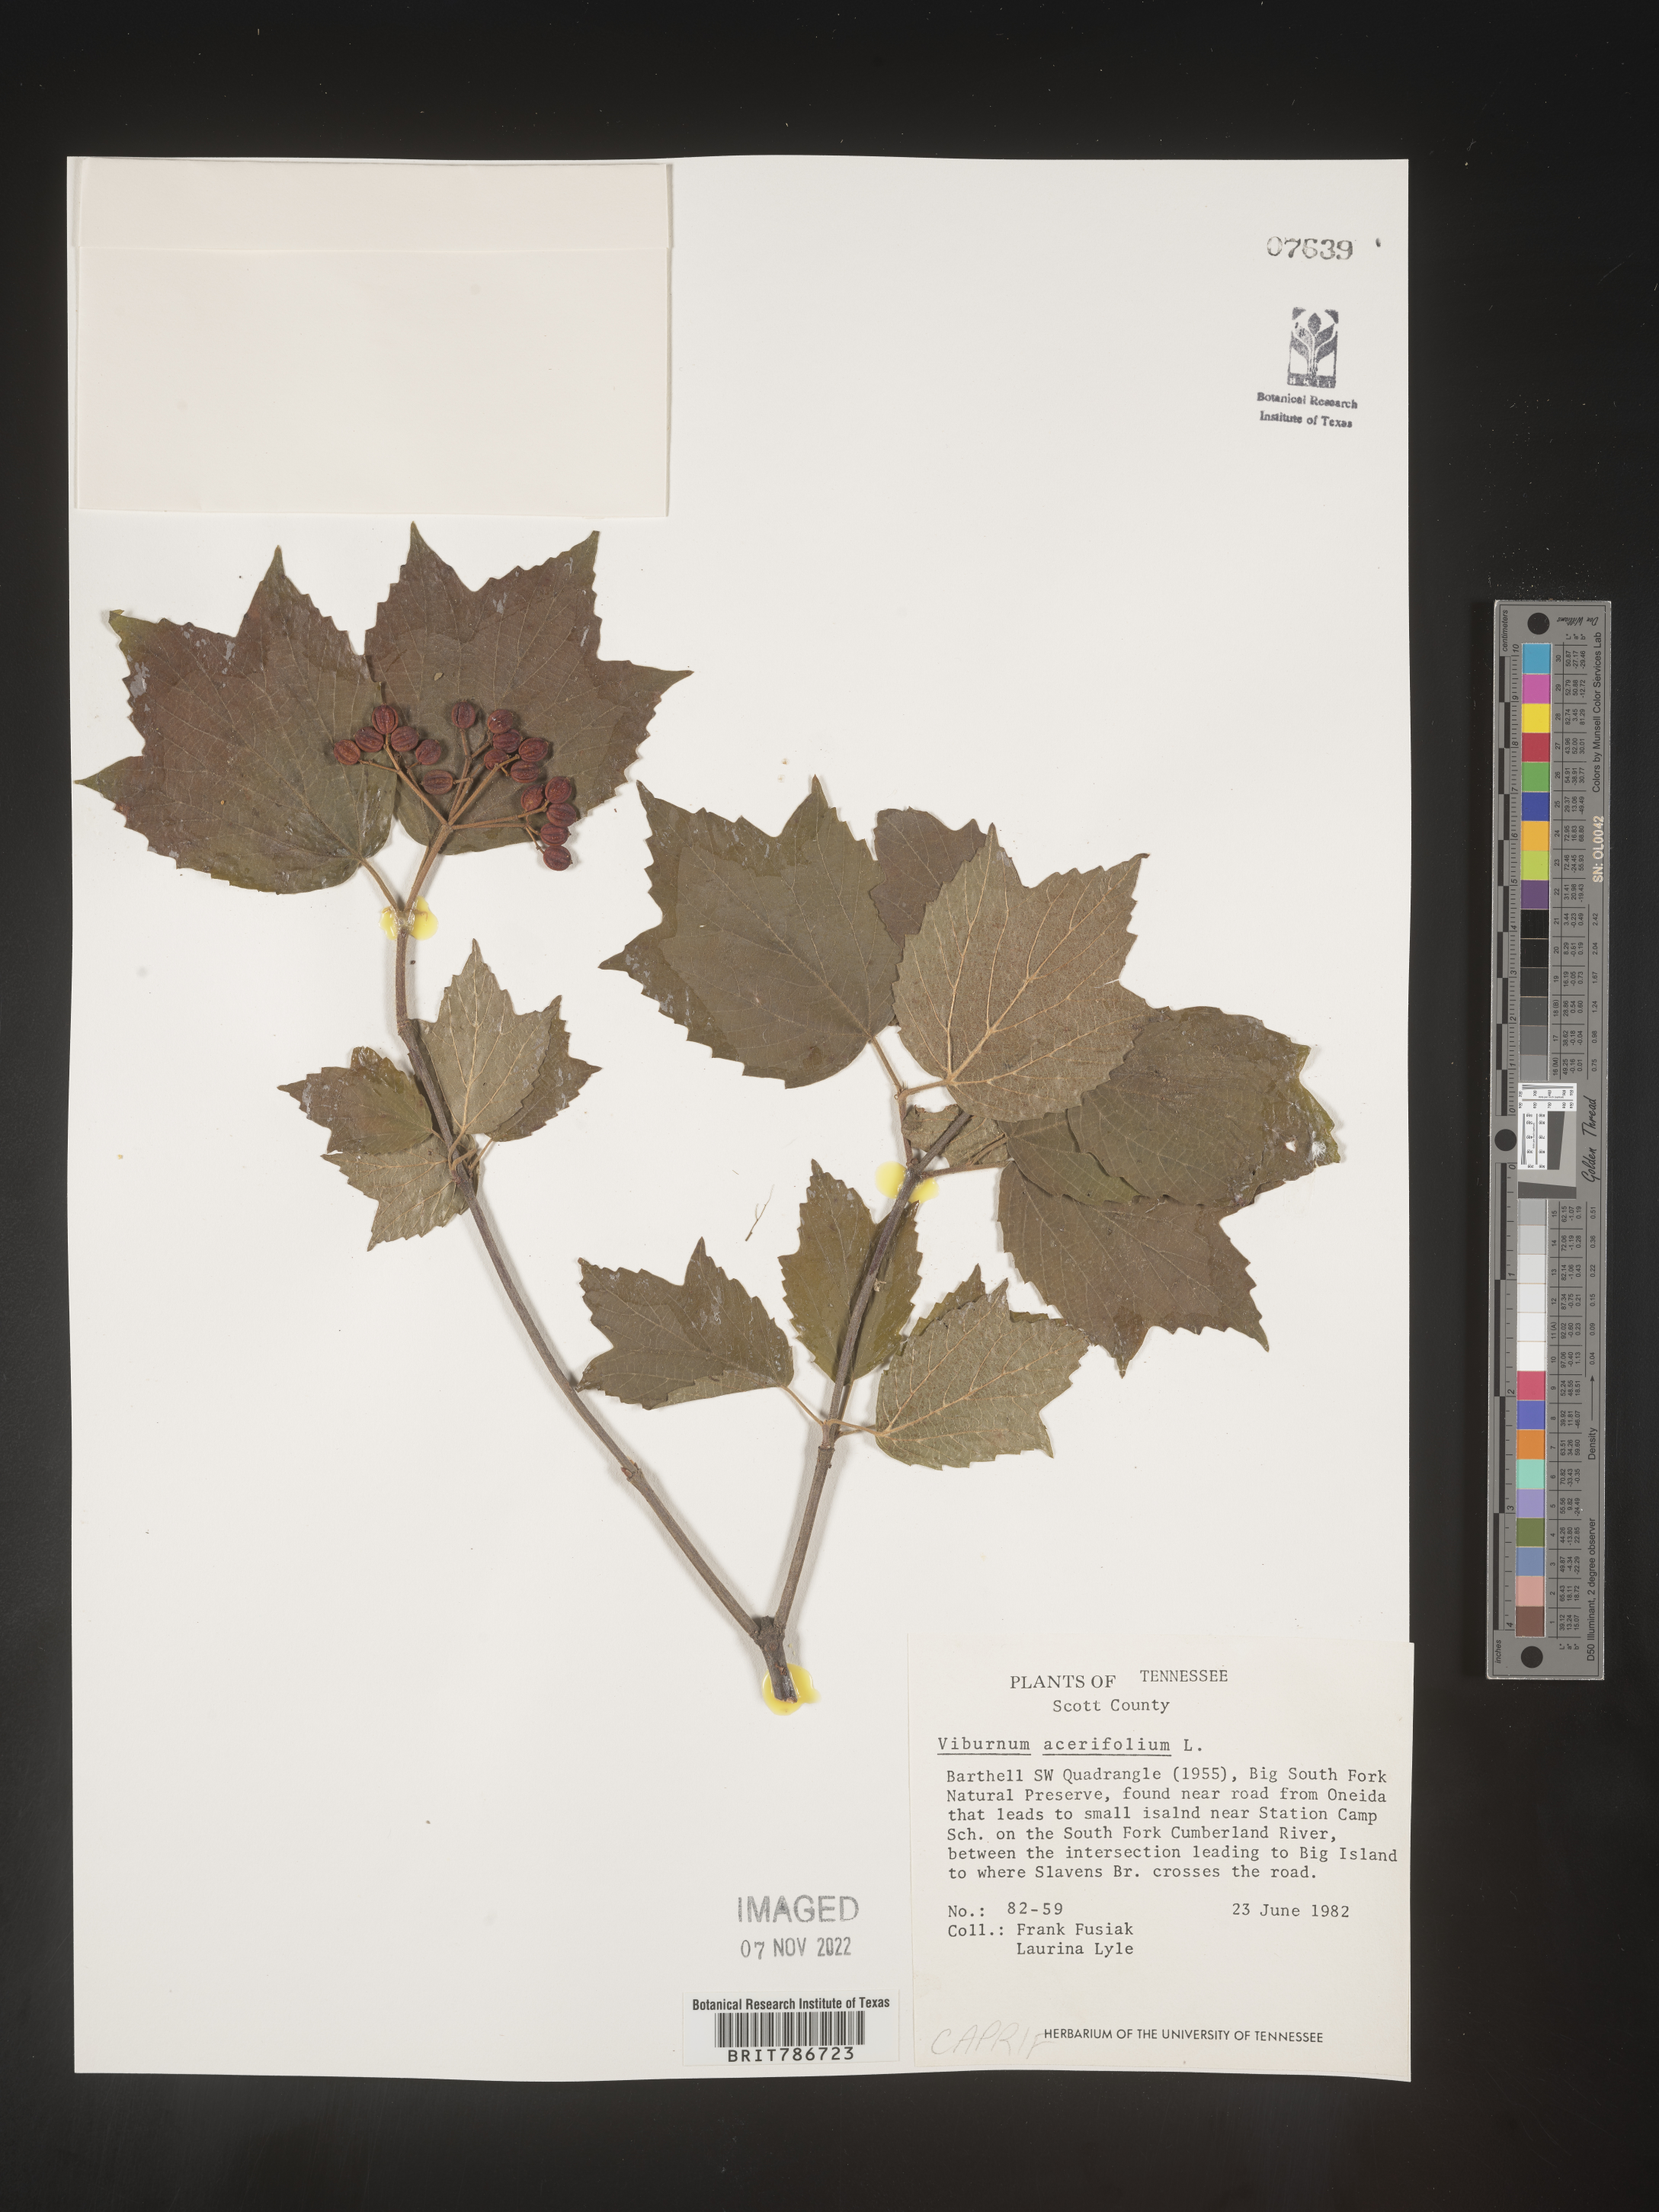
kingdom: Plantae
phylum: Tracheophyta
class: Magnoliopsida
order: Dipsacales
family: Viburnaceae
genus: Viburnum
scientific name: Viburnum acerifolium
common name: Dockmackie
